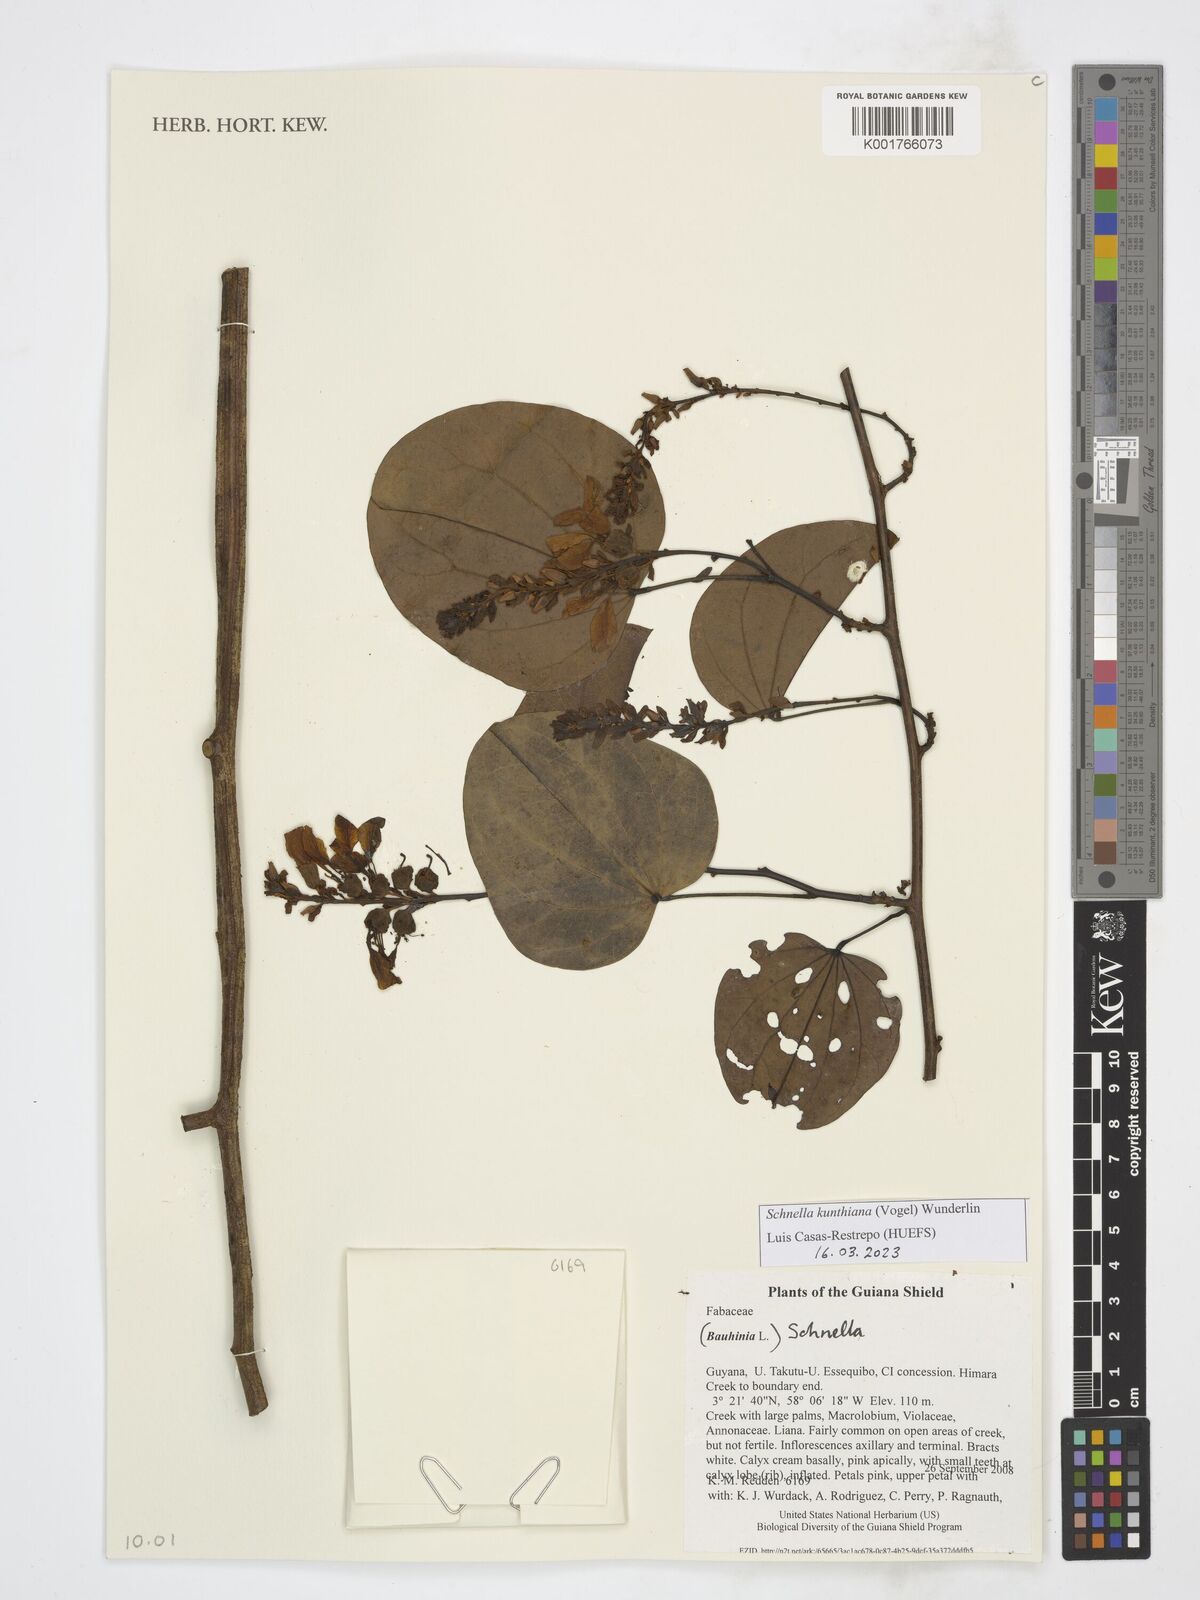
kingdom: Plantae
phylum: Tracheophyta
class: Magnoliopsida
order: Fabales
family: Fabaceae
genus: Schnella
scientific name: Schnella kunthiana
